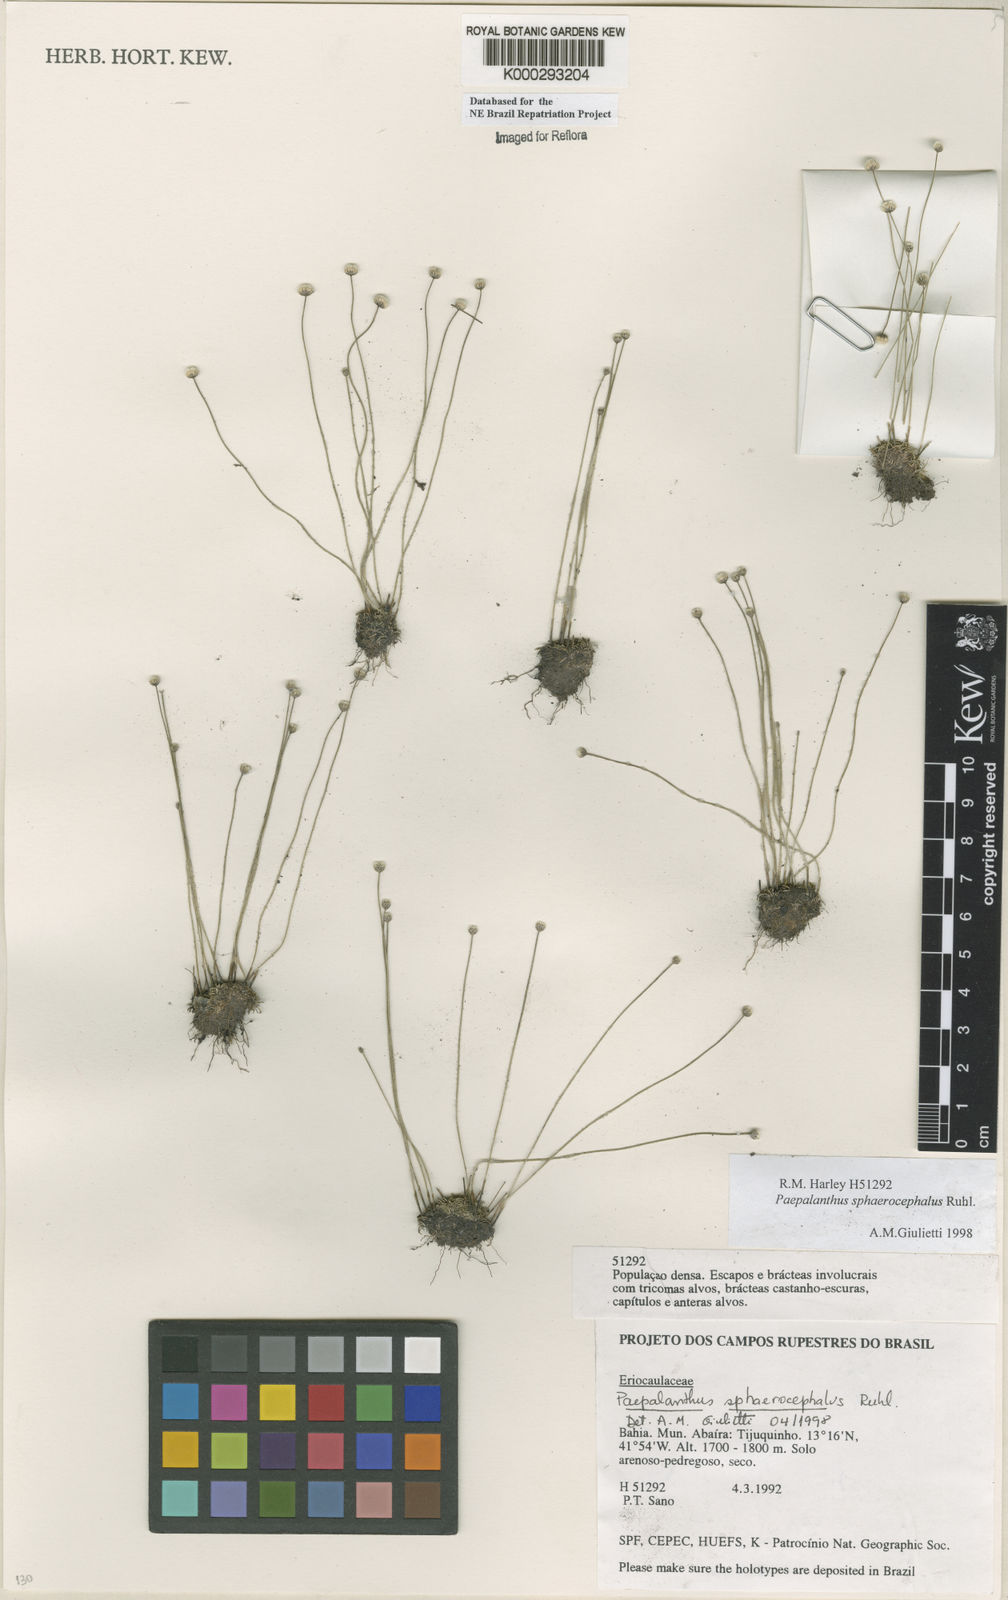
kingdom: Plantae
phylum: Tracheophyta
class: Liliopsida
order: Poales
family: Eriocaulaceae
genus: Paepalanthus
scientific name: Paepalanthus sphaerocephalus
